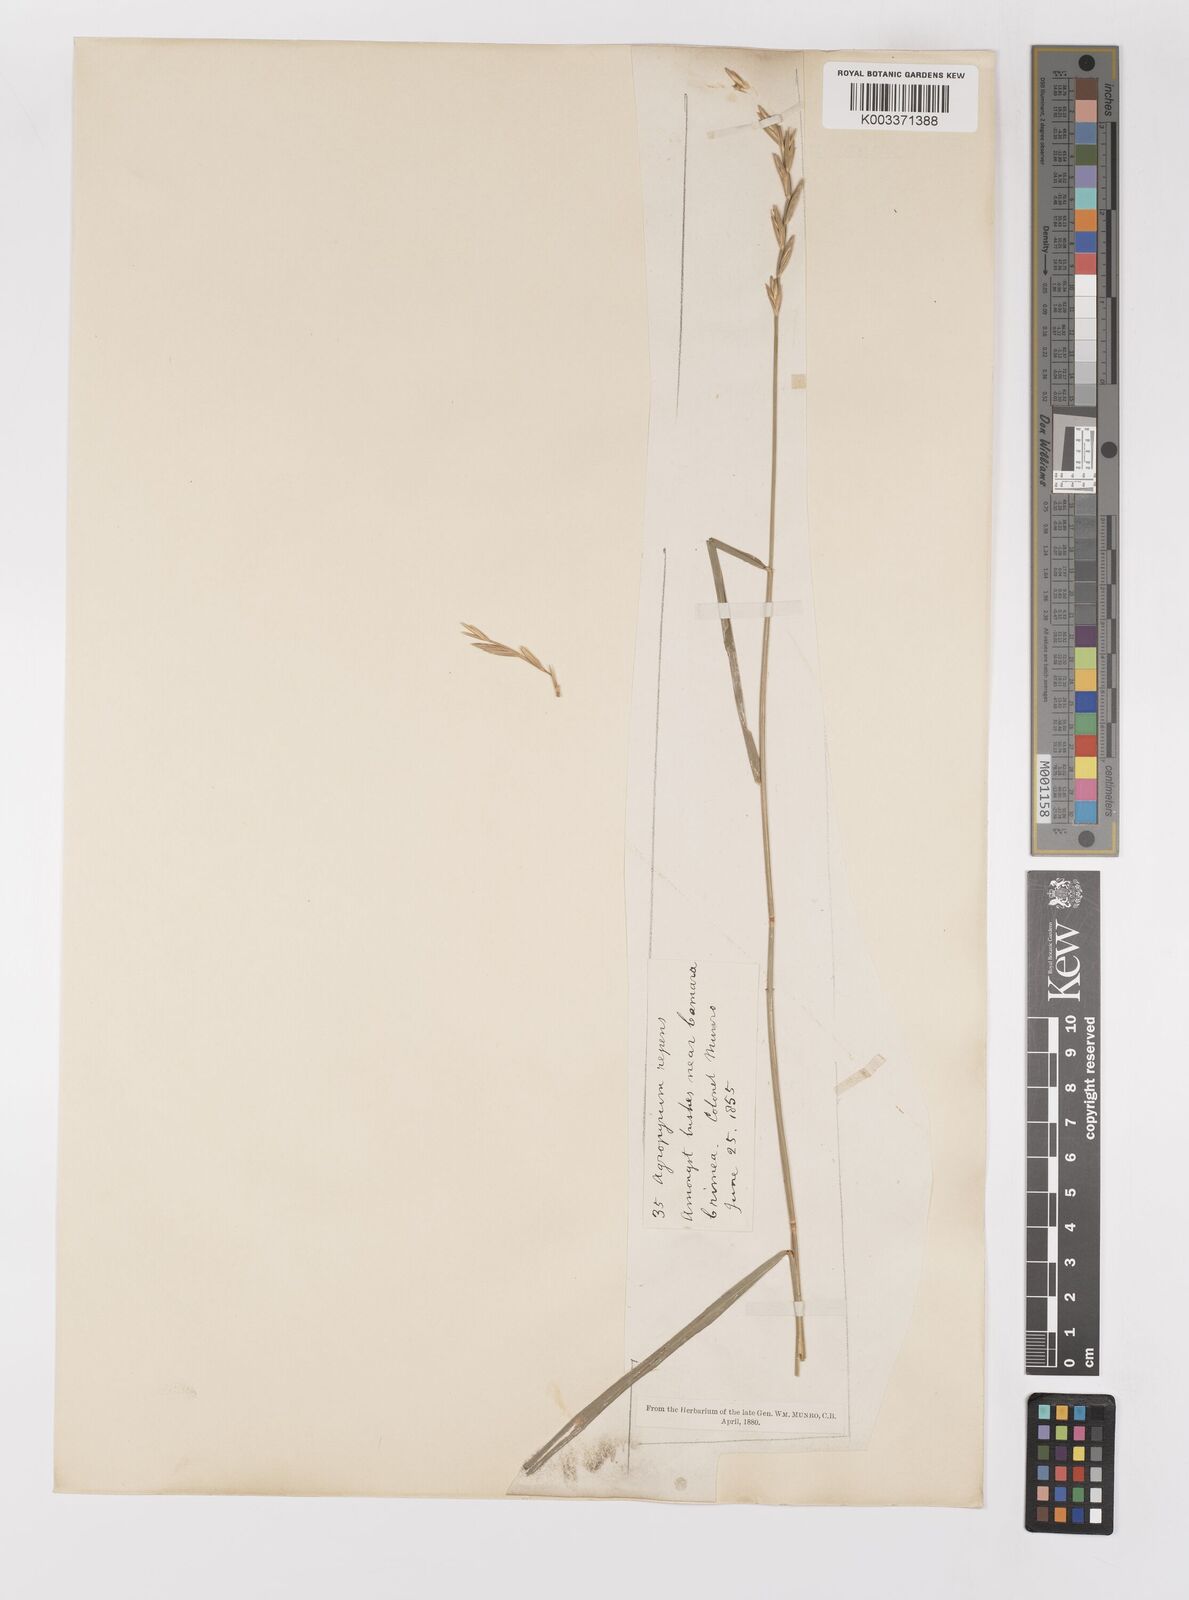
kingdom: Plantae
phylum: Tracheophyta
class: Liliopsida
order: Poales
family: Poaceae
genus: Elymus
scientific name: Elymus repens
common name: Quackgrass
